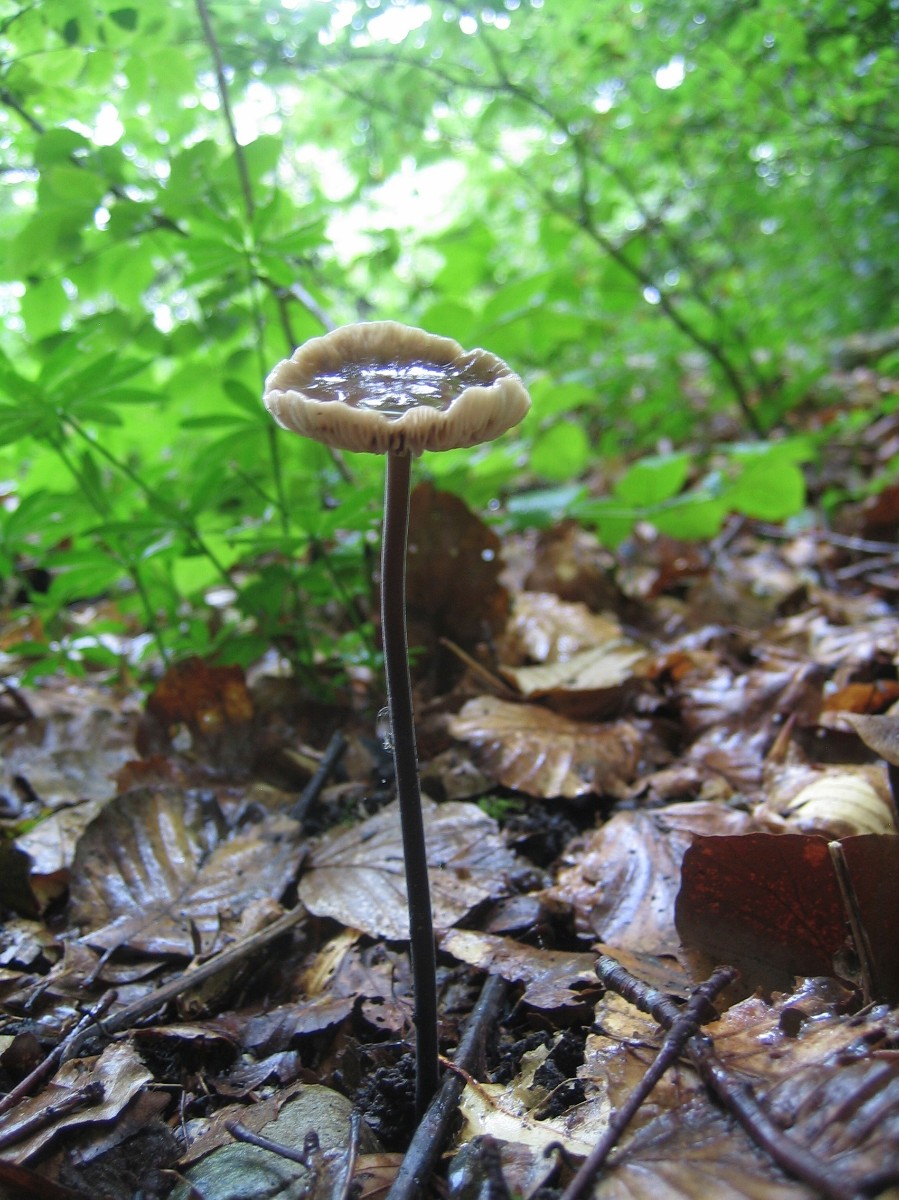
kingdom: Fungi
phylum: Basidiomycota
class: Agaricomycetes
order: Agaricales
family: Omphalotaceae
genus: Mycetinis
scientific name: Mycetinis alliaceus
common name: stor løghat
